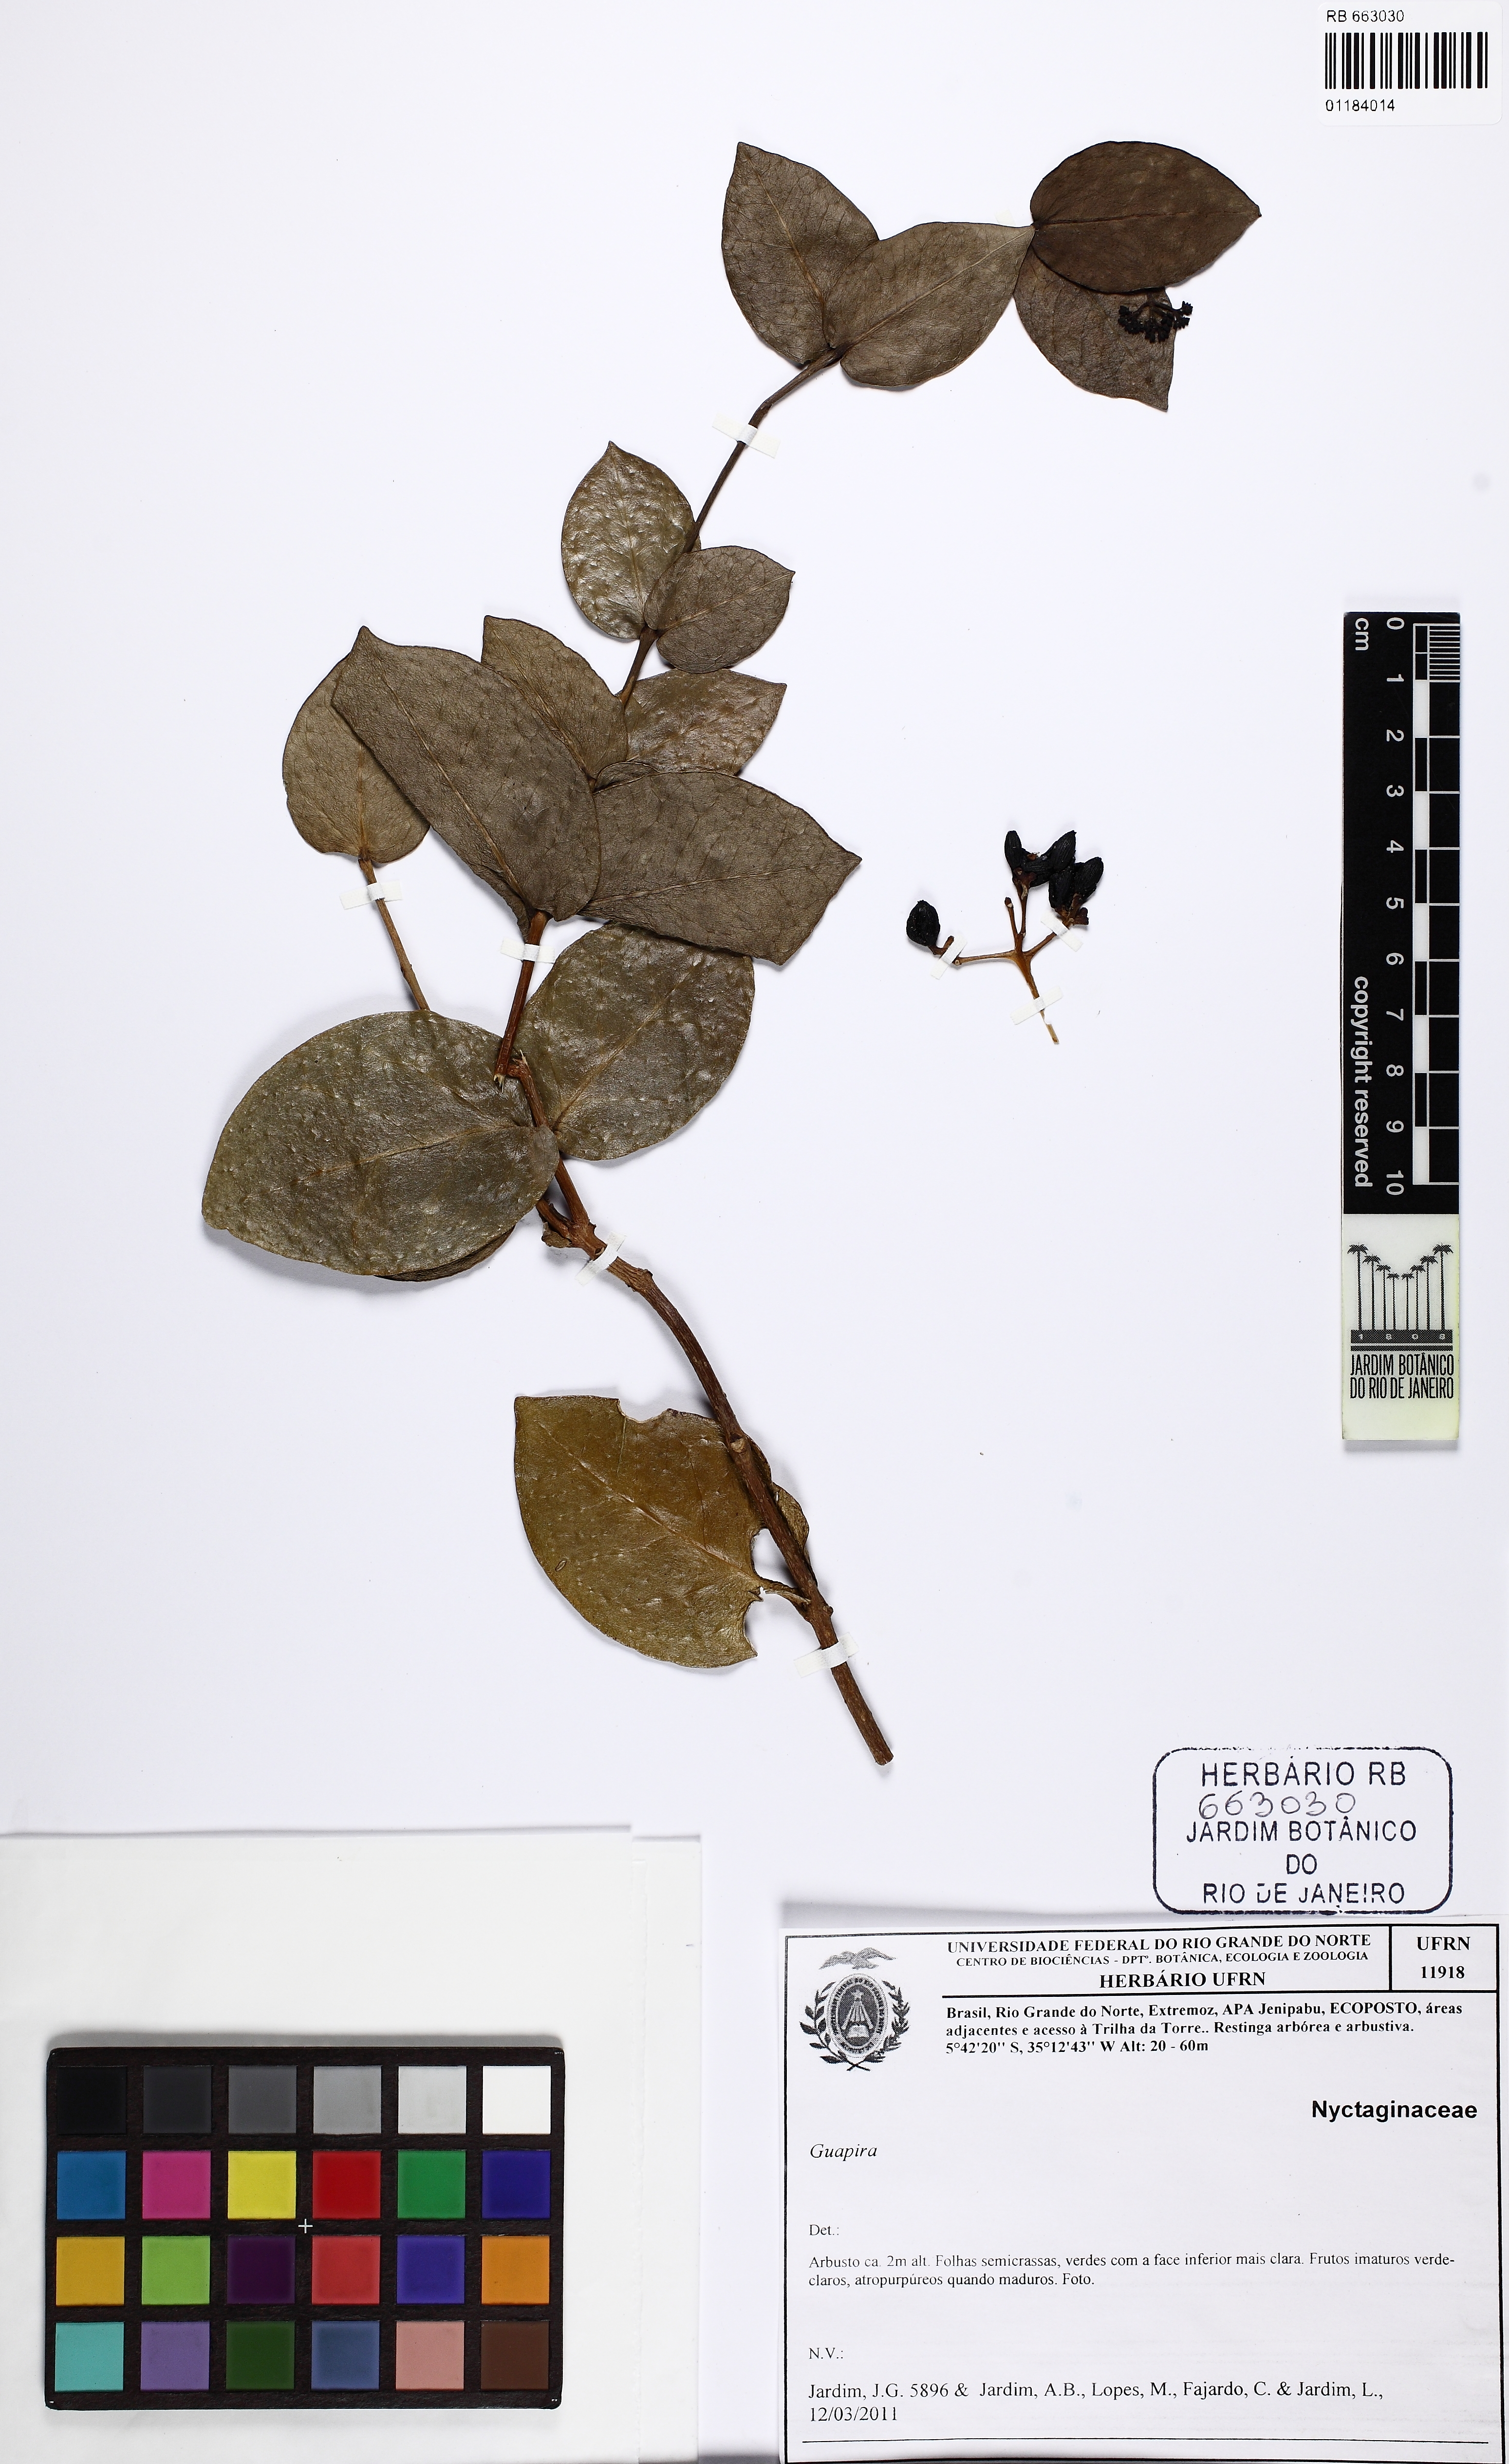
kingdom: Plantae
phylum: Tracheophyta
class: Magnoliopsida
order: Caryophyllales
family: Nyctaginaceae
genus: Guapira
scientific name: Guapira pernambucensis
